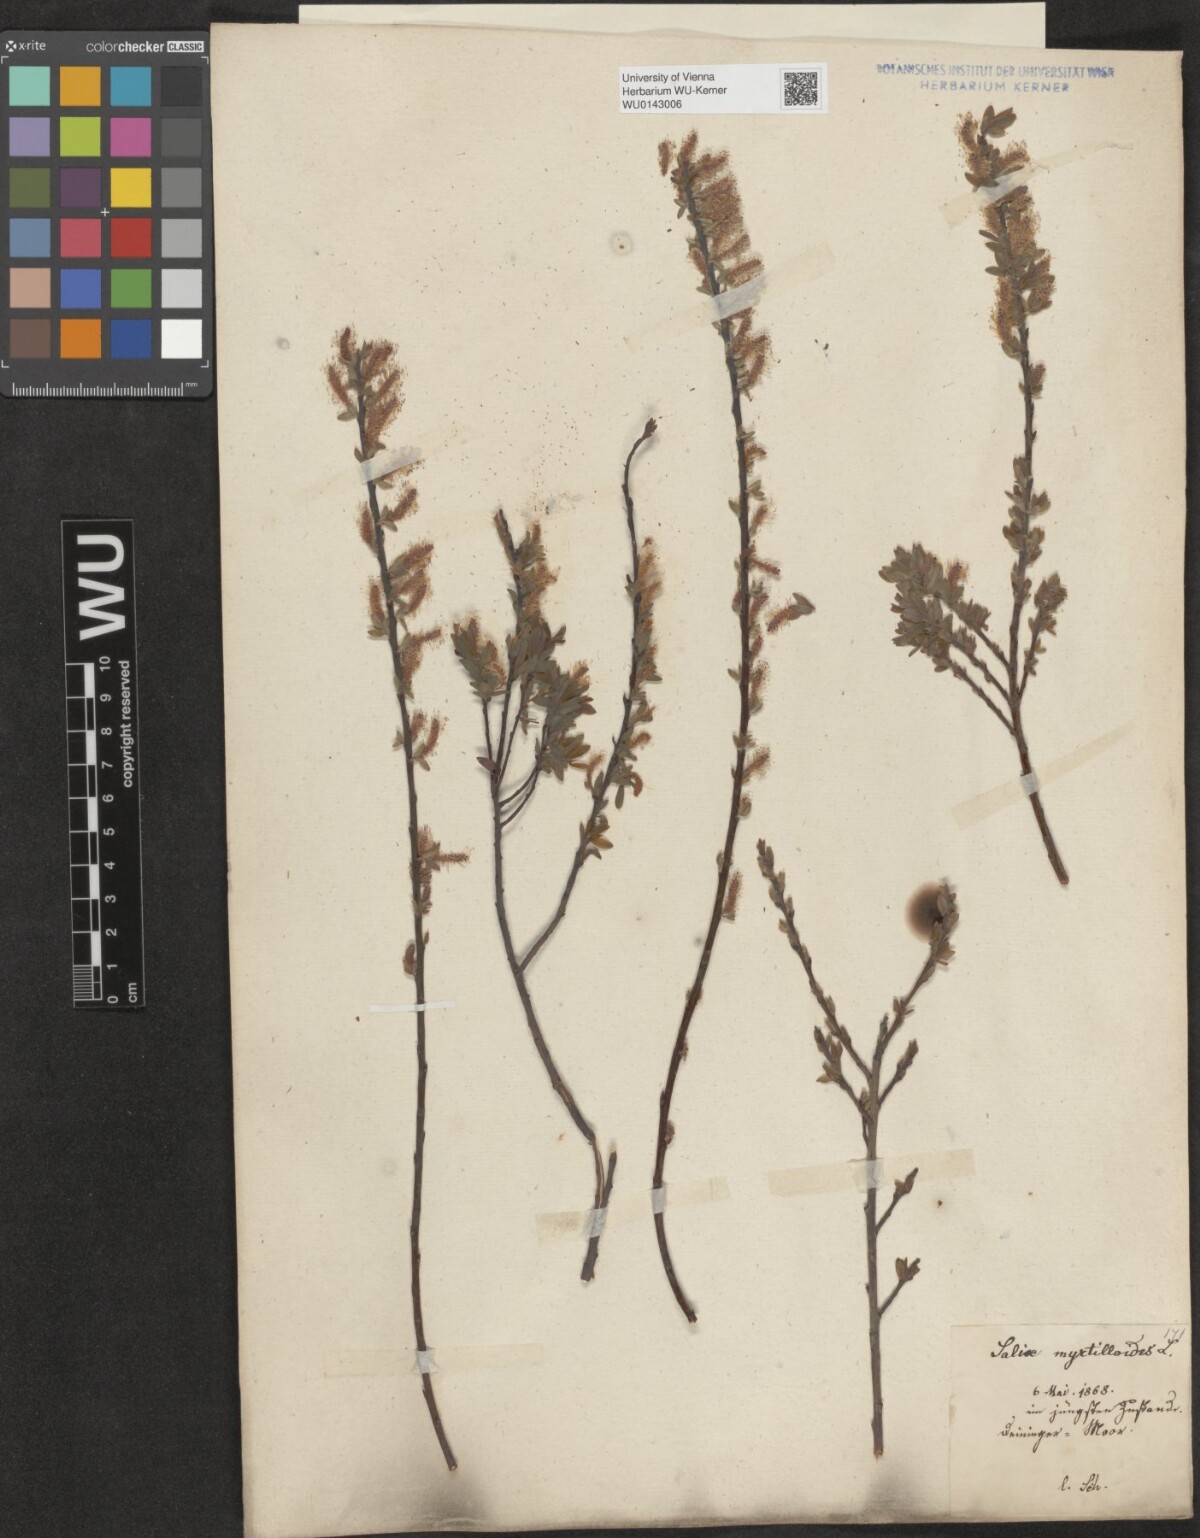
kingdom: Plantae
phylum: Tracheophyta
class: Magnoliopsida
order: Malpighiales
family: Salicaceae
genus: Salix
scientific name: Salix myrtilloides
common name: Myrtle-leaved willow
